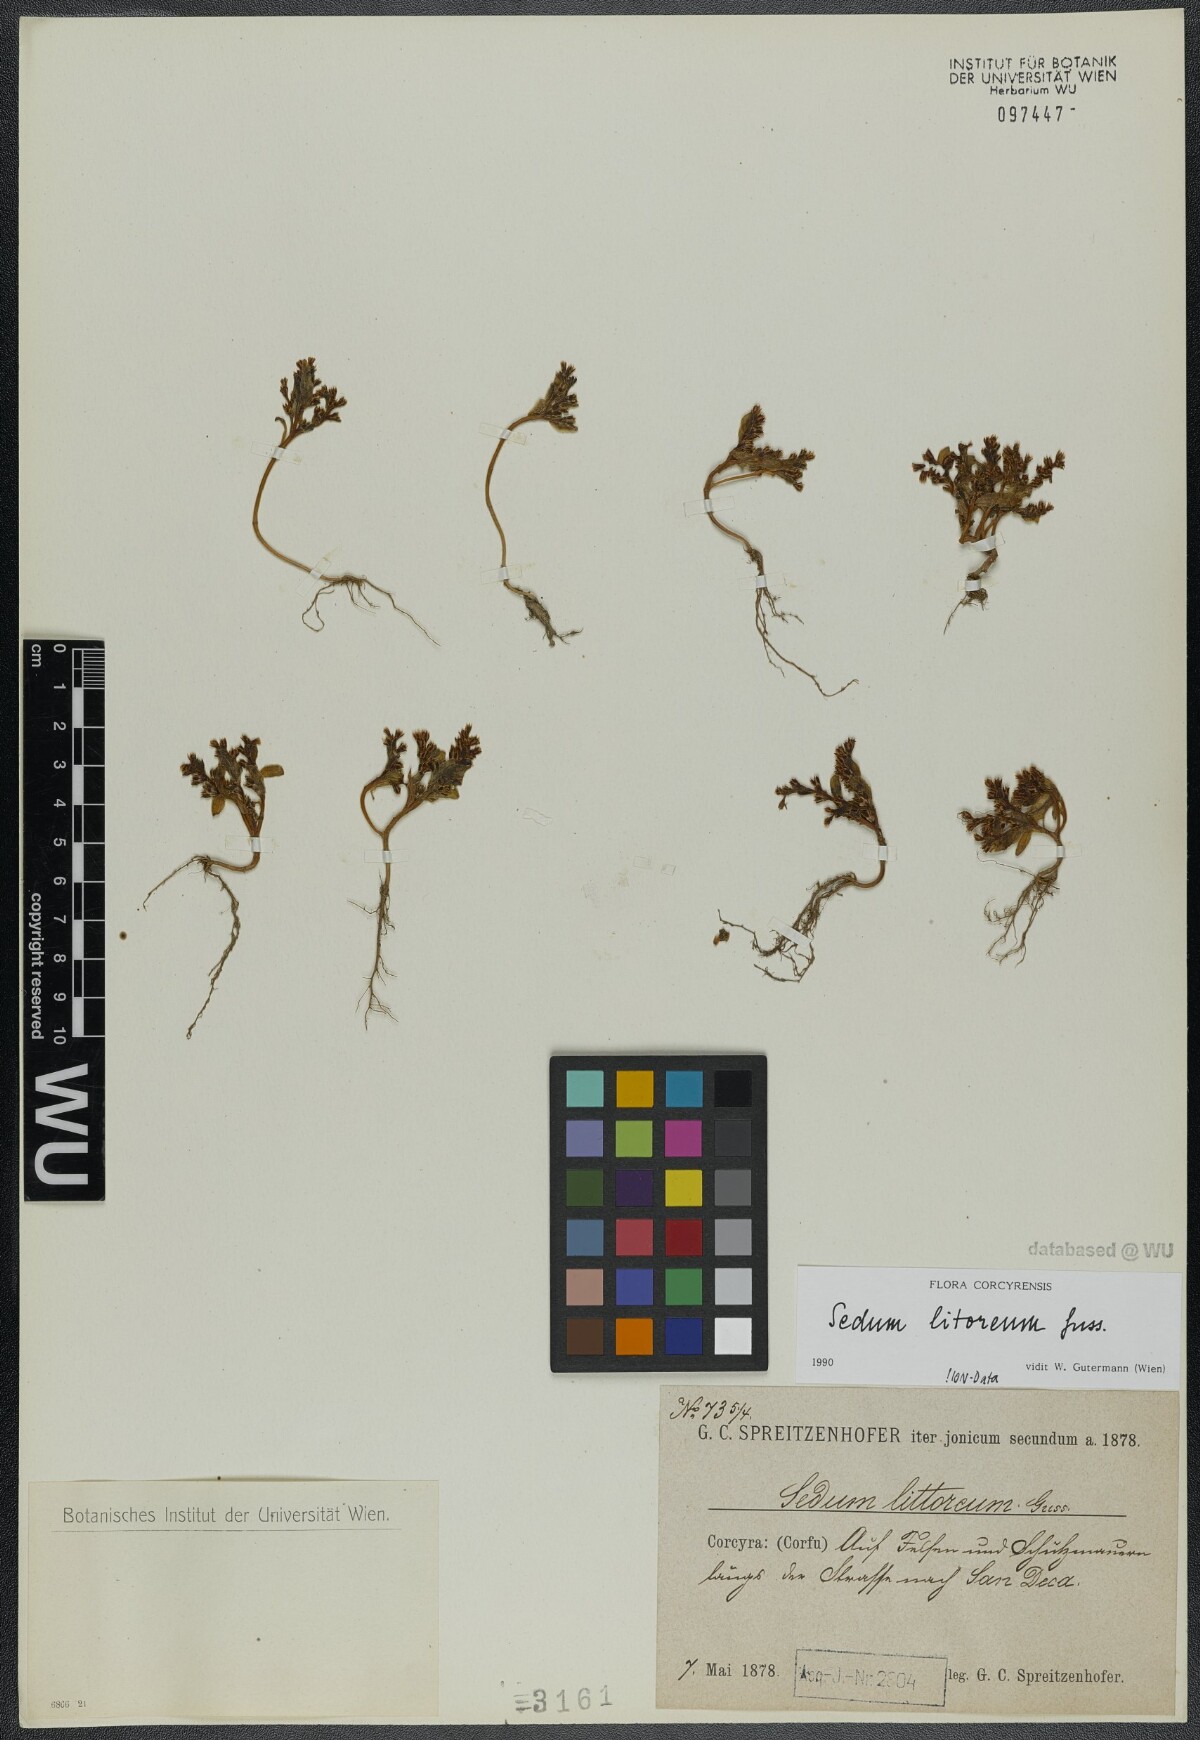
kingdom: Plantae
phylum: Tracheophyta
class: Magnoliopsida
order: Saxifragales
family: Crassulaceae
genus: Sedum
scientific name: Sedum litoreum
